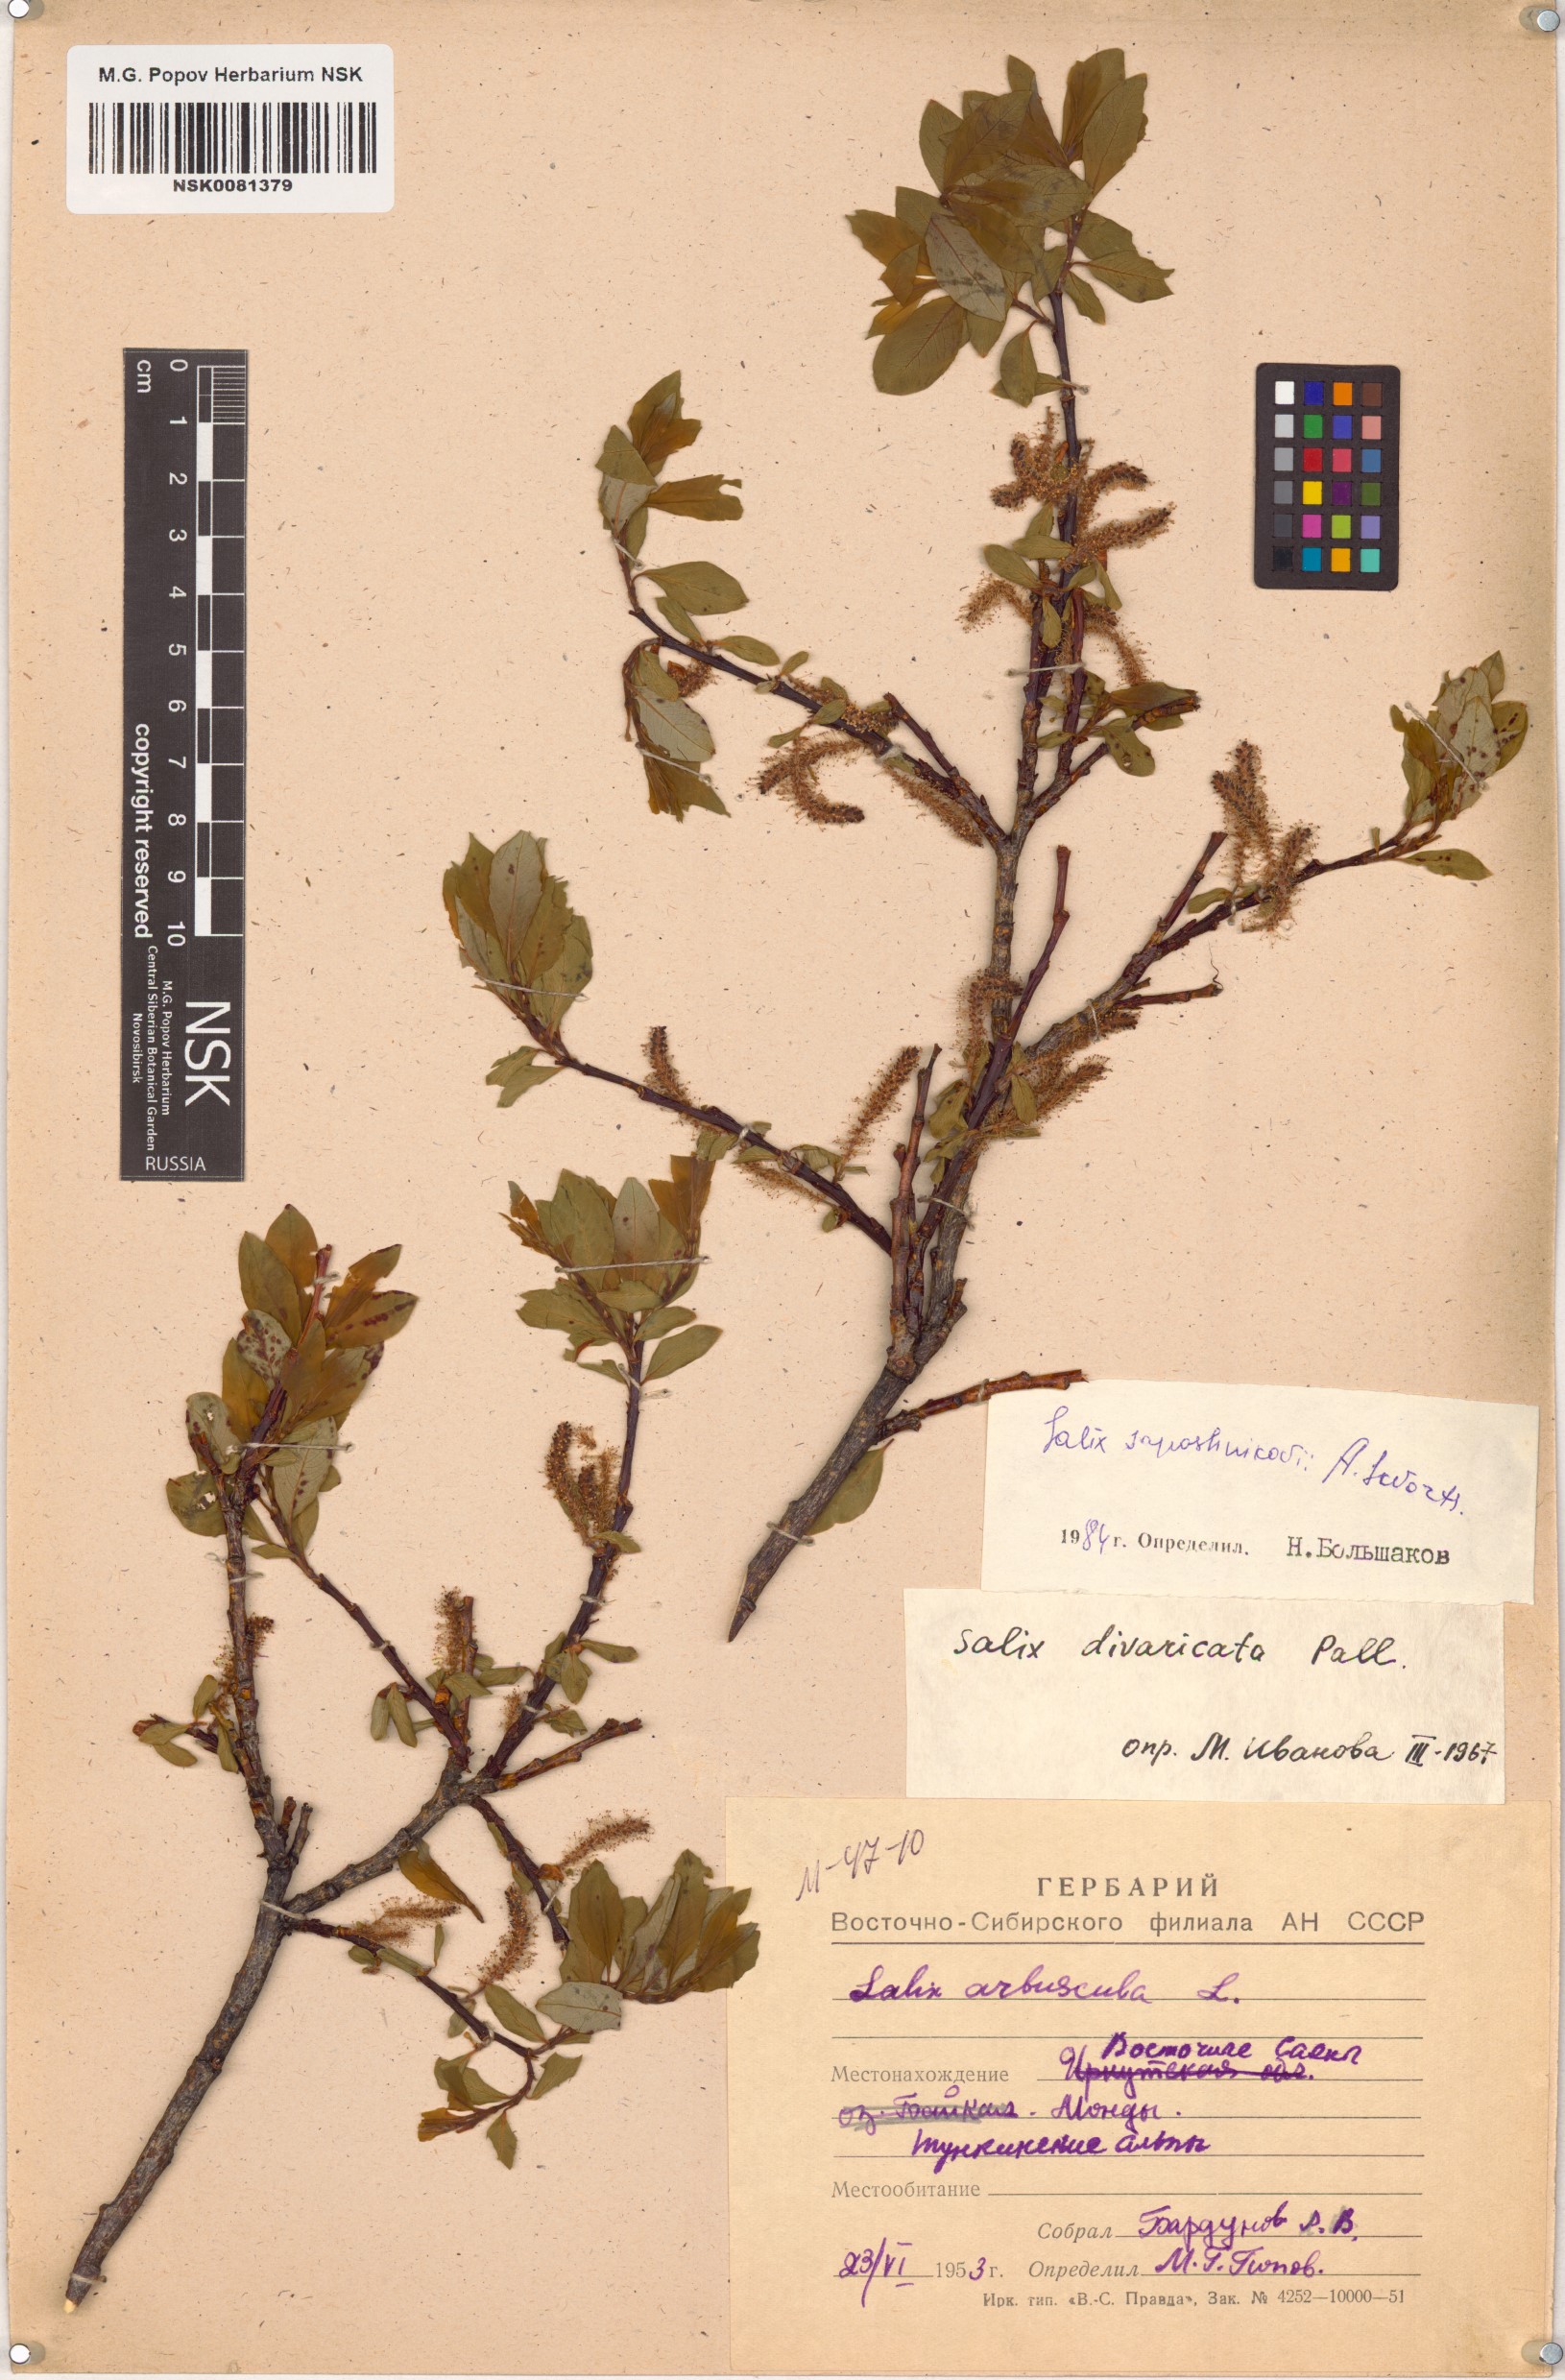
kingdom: Plantae
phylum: Tracheophyta
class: Magnoliopsida
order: Malpighiales
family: Salicaceae
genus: Salix
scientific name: Salix saposhnikovii
